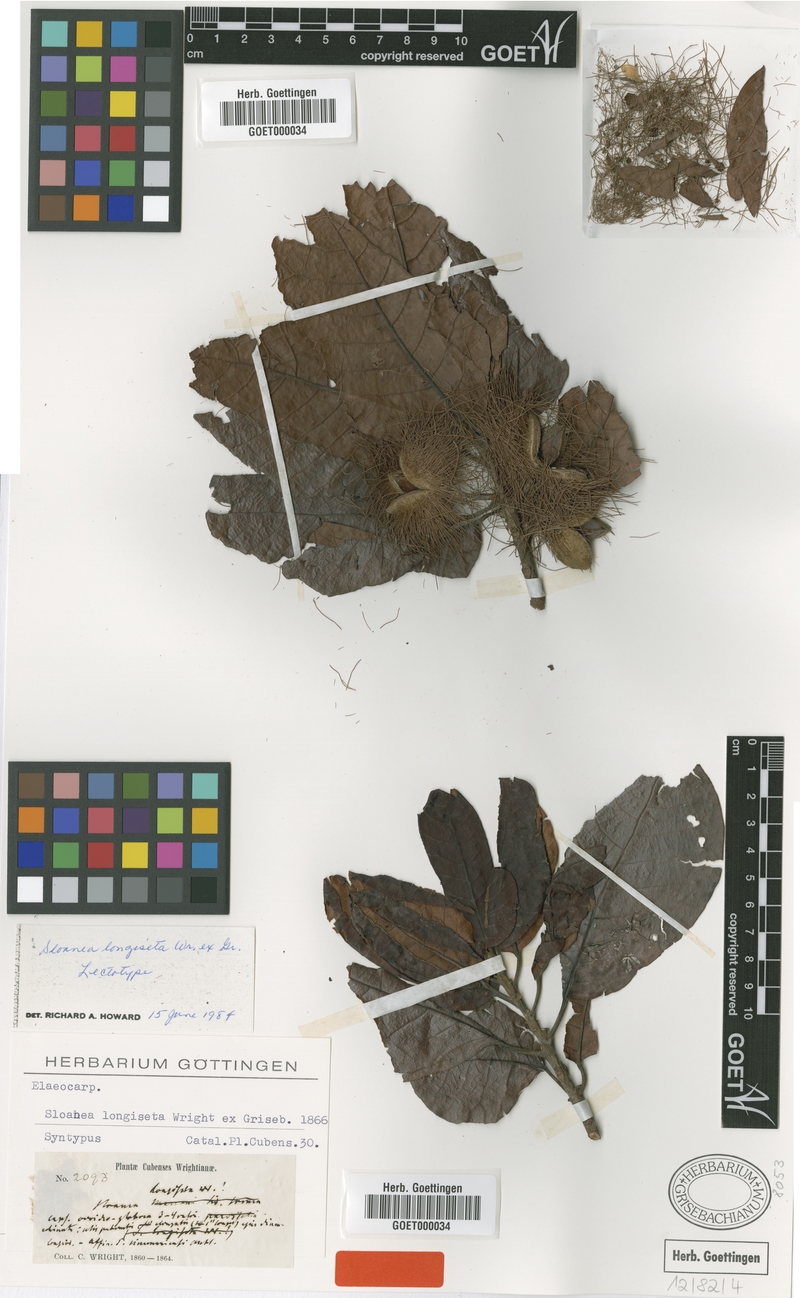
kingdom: Plantae
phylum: Tracheophyta
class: Magnoliopsida
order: Oxalidales
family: Elaeocarpaceae
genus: Sloanea
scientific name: Sloanea curatellifolia
